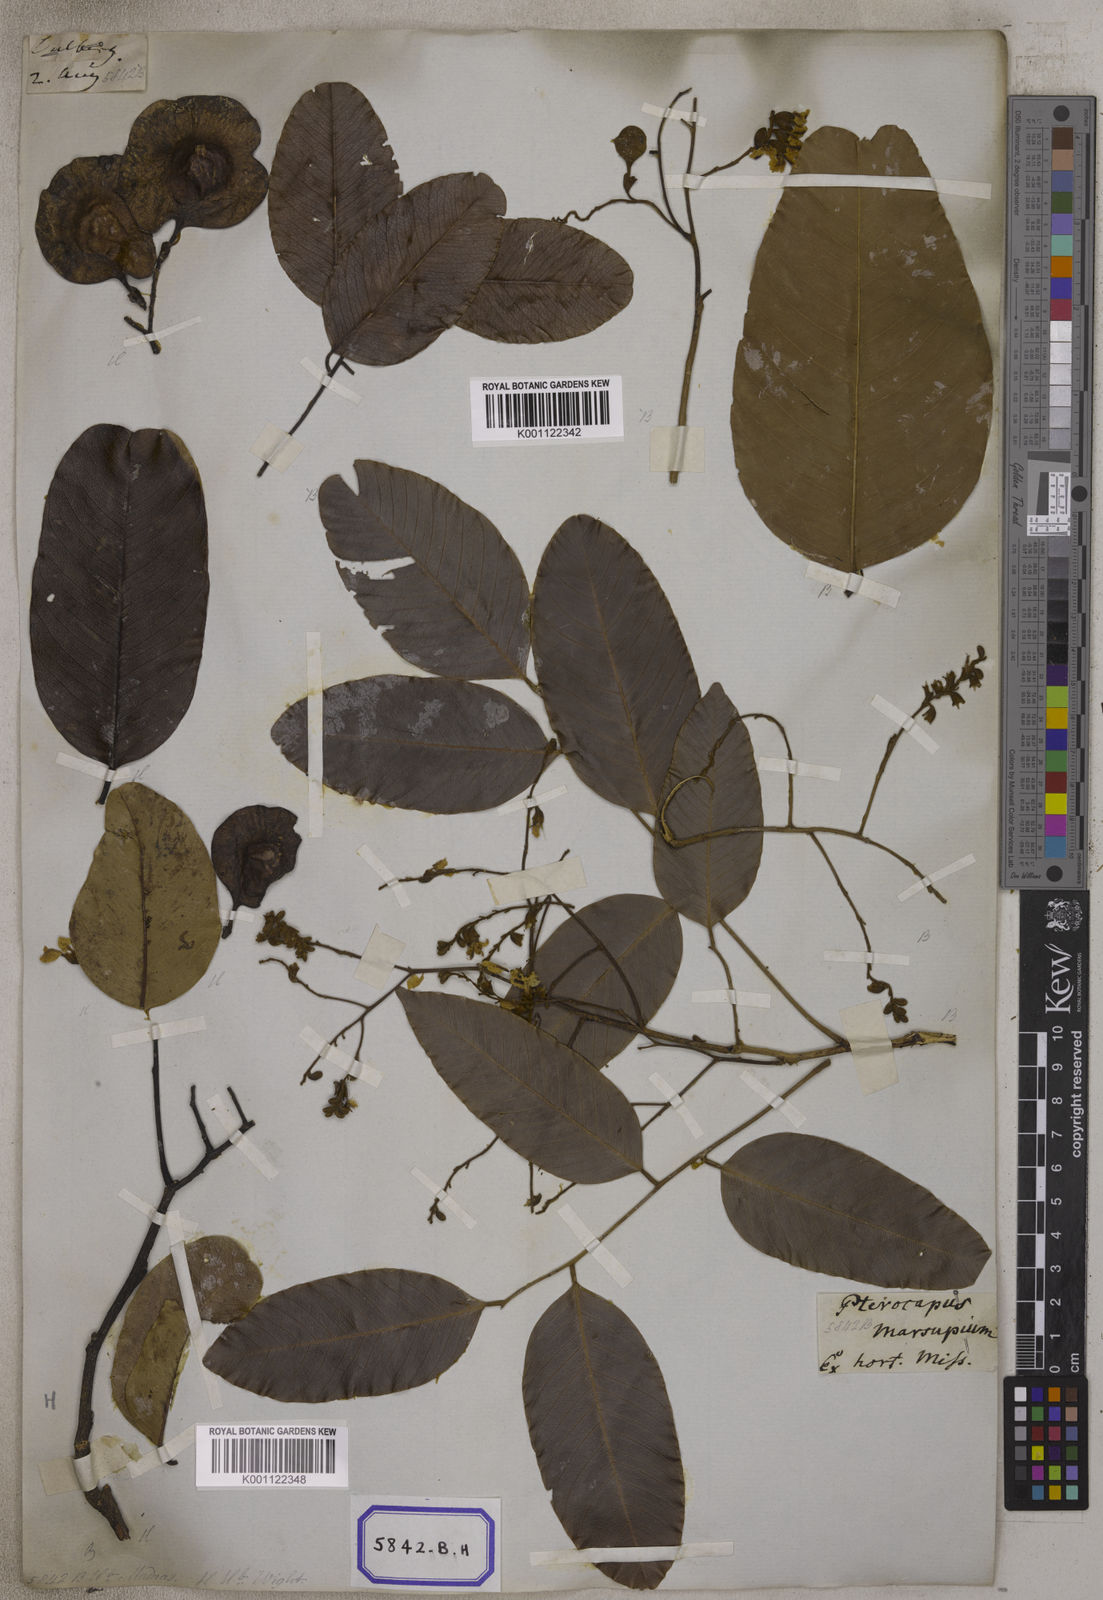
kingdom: Plantae
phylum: Tracheophyta
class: Magnoliopsida
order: Fabales
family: Fabaceae
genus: Pterocarpus
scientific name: Pterocarpus marsupium
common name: East indian/malabar kino
